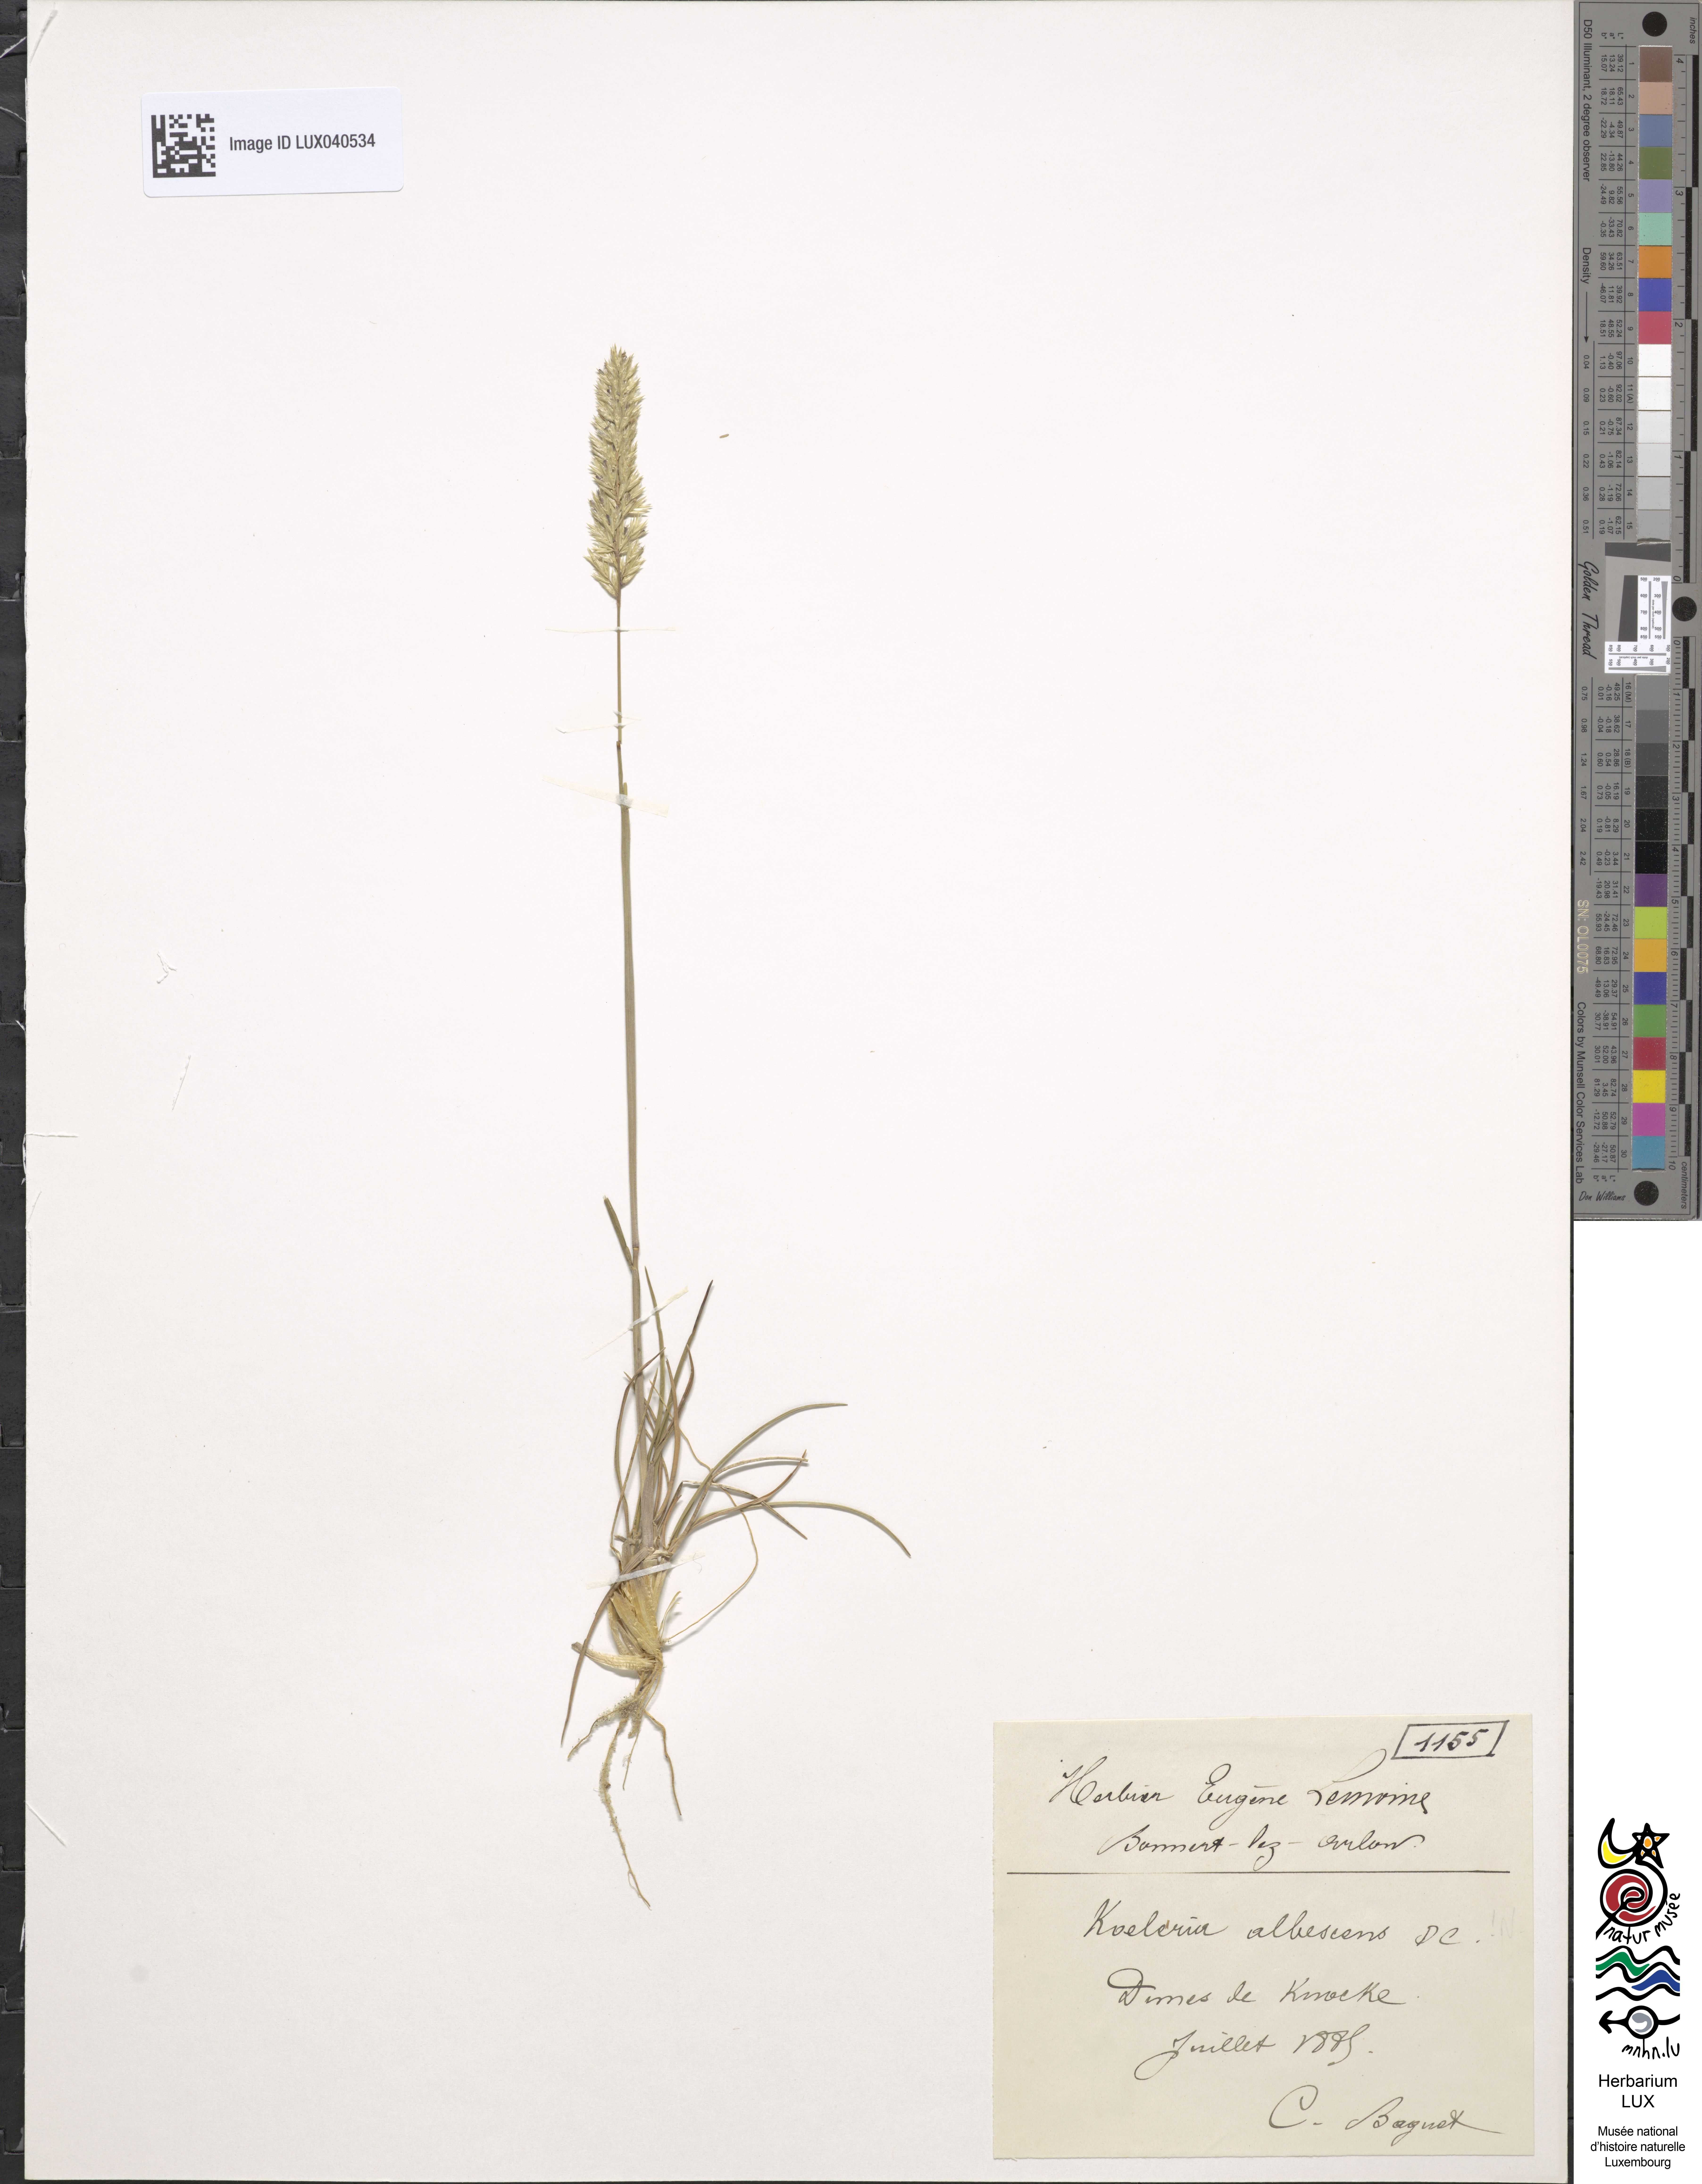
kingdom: Plantae
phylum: Tracheophyta
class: Liliopsida
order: Poales
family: Poaceae
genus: Koeleria
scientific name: Koeleria pyramidata
